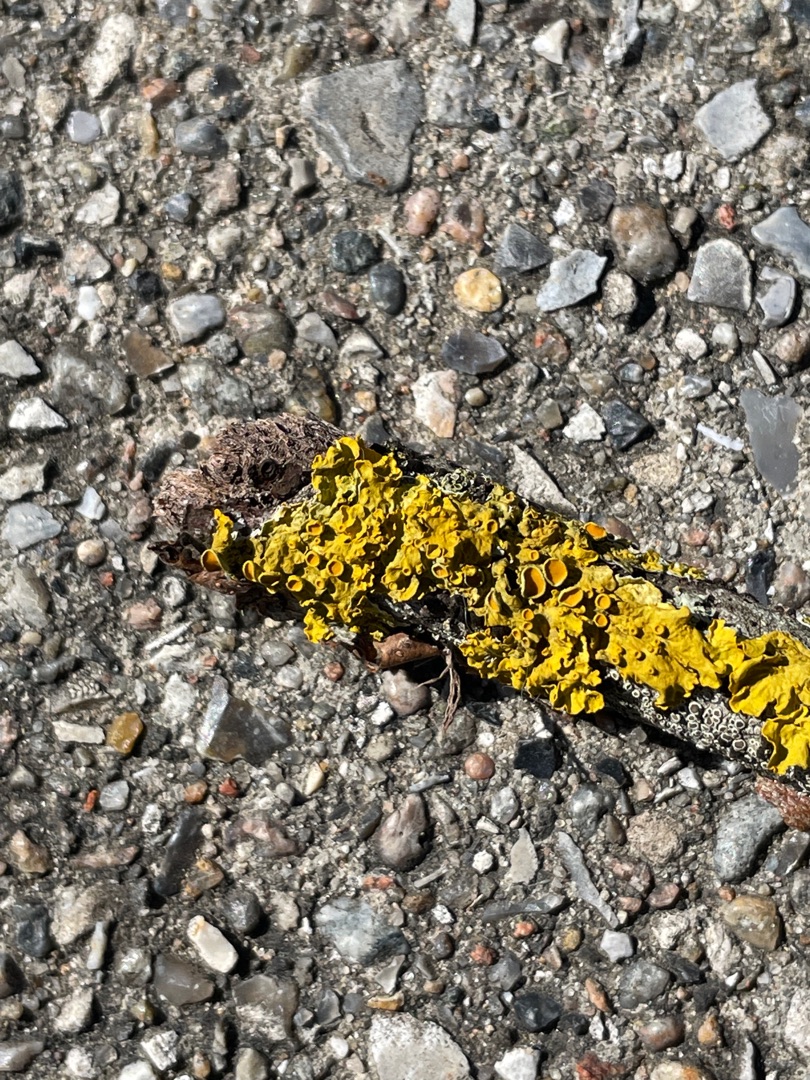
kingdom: Fungi
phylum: Ascomycota
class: Lecanoromycetes
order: Teloschistales
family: Teloschistaceae
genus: Xanthoria
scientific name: Xanthoria parietina
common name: Almindelig væggelav
